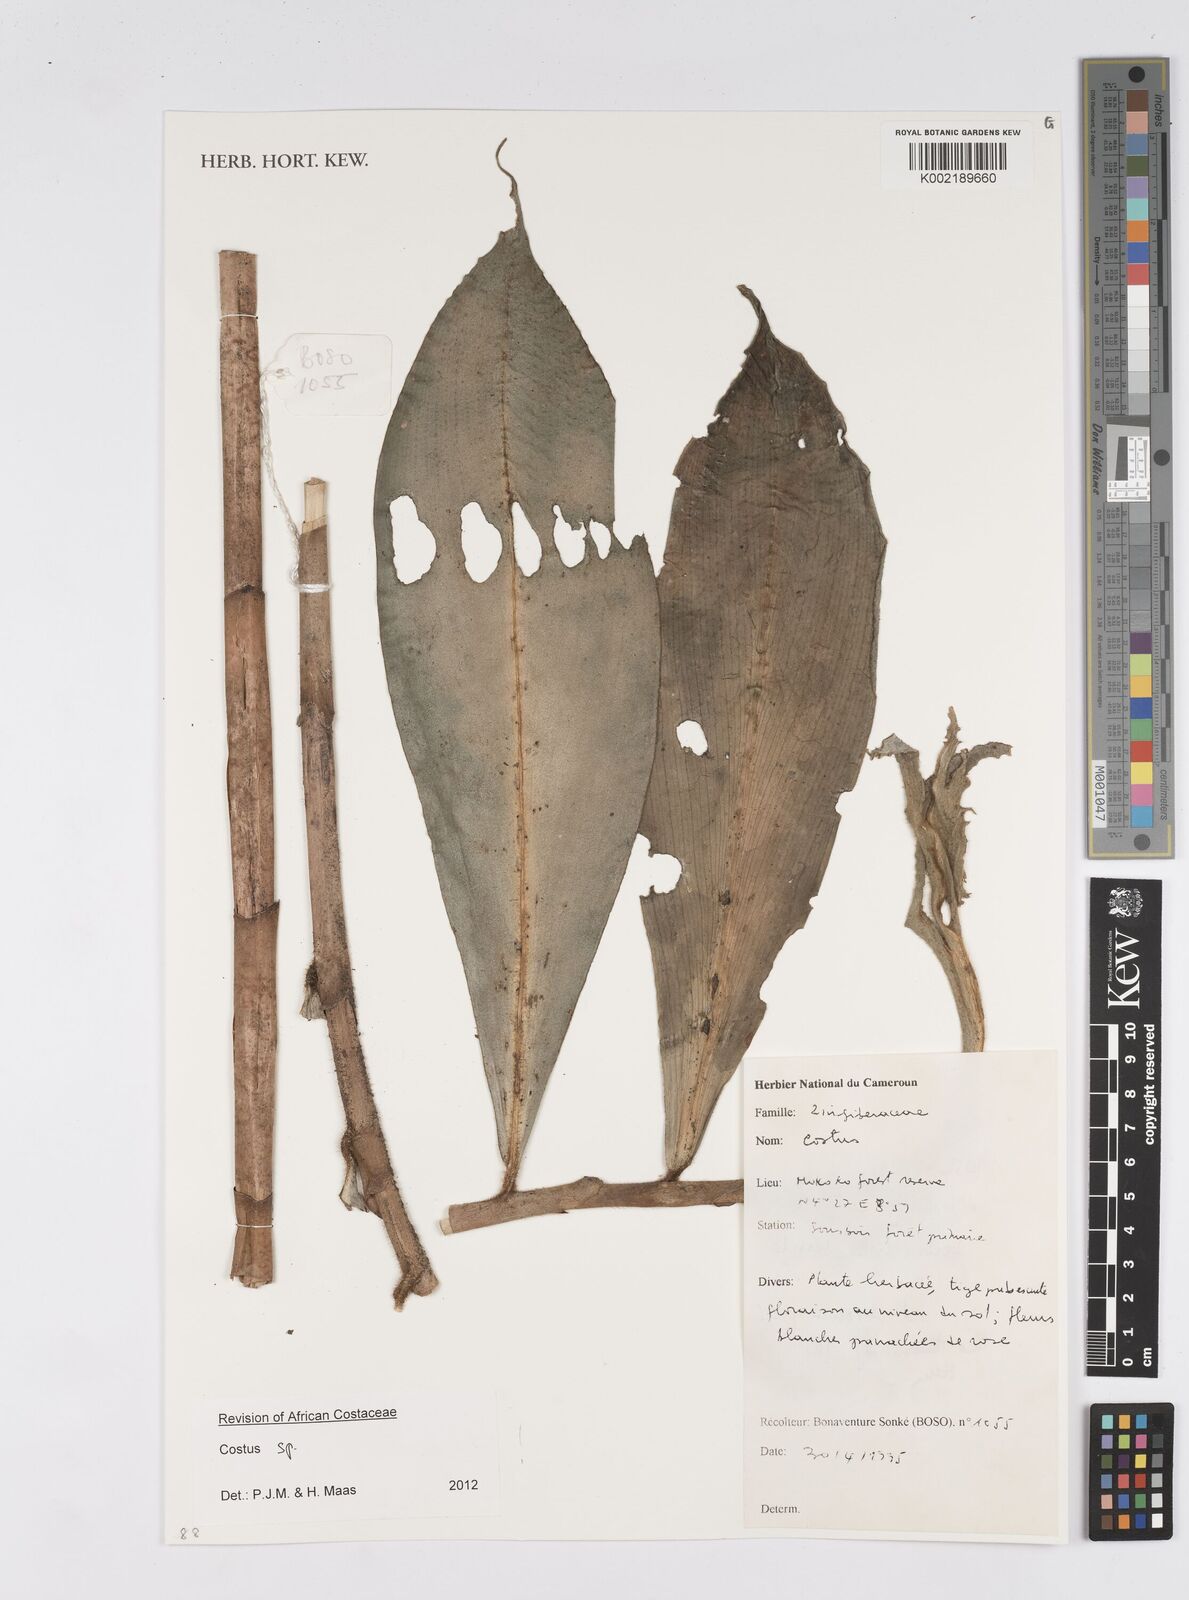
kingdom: Plantae
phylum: Tracheophyta
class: Liliopsida
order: Zingiberales
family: Costaceae
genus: Costus
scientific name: Costus
